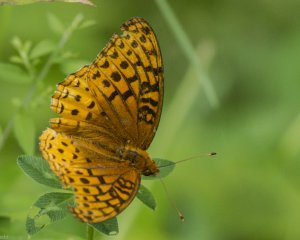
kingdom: Animalia
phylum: Arthropoda
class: Insecta
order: Lepidoptera
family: Nymphalidae
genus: Speyeria
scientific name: Speyeria cybele
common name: Great Spangled Fritillary
